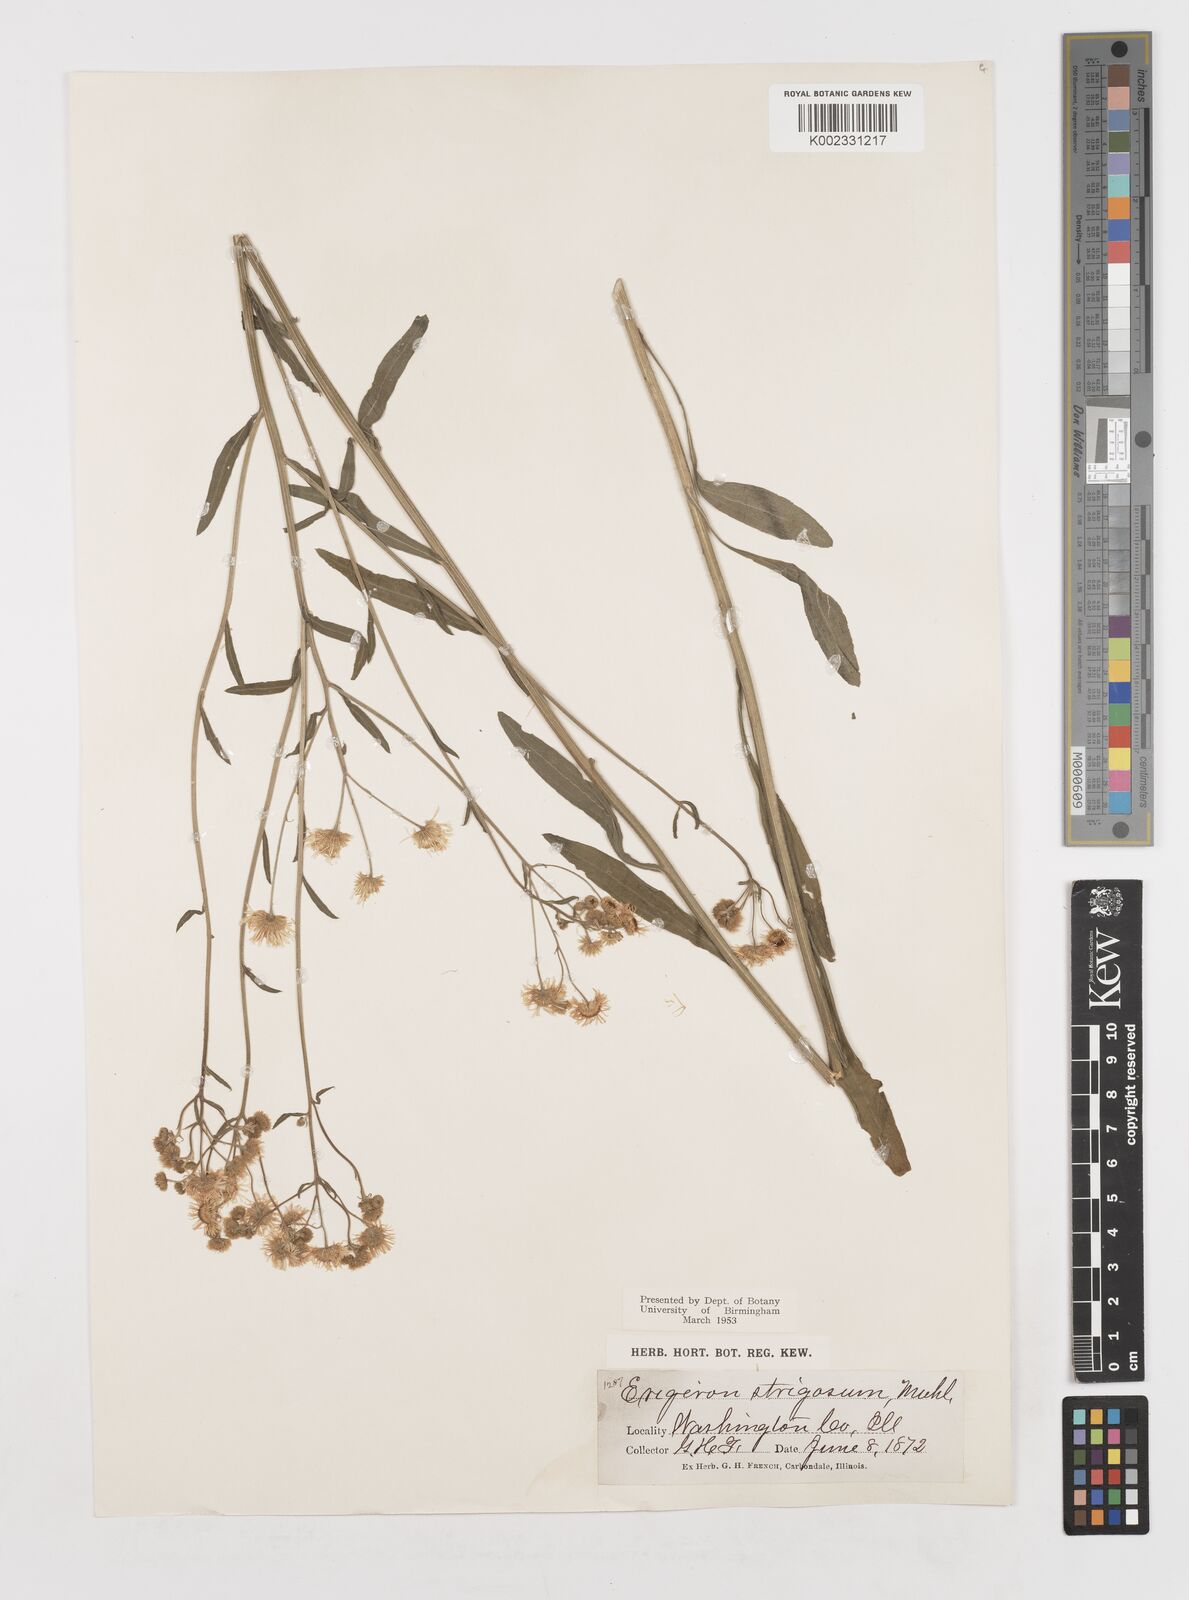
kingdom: Plantae
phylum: Tracheophyta
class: Magnoliopsida
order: Asterales
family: Asteraceae
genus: Erigeron
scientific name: Erigeron strigosus
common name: Common eastern fleabane
